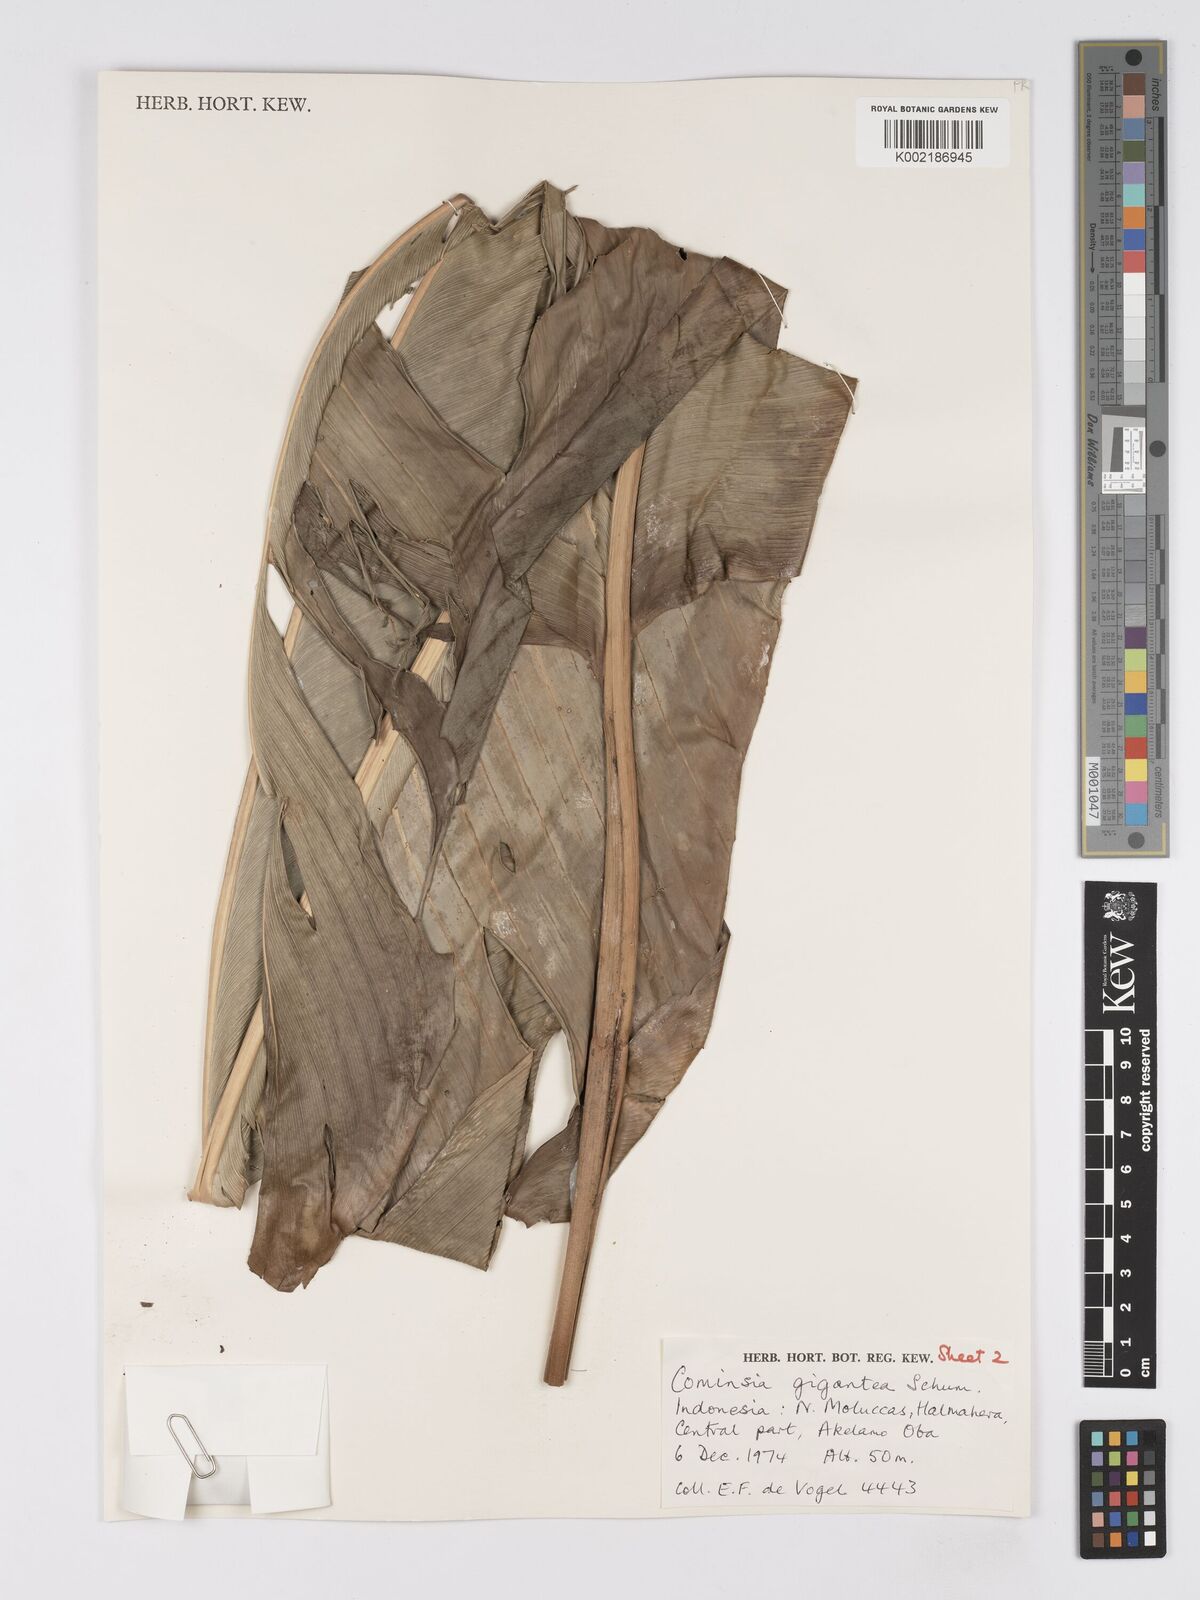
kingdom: Plantae
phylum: Tracheophyta
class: Liliopsida
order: Zingiberales
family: Marantaceae
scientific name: Marantaceae
